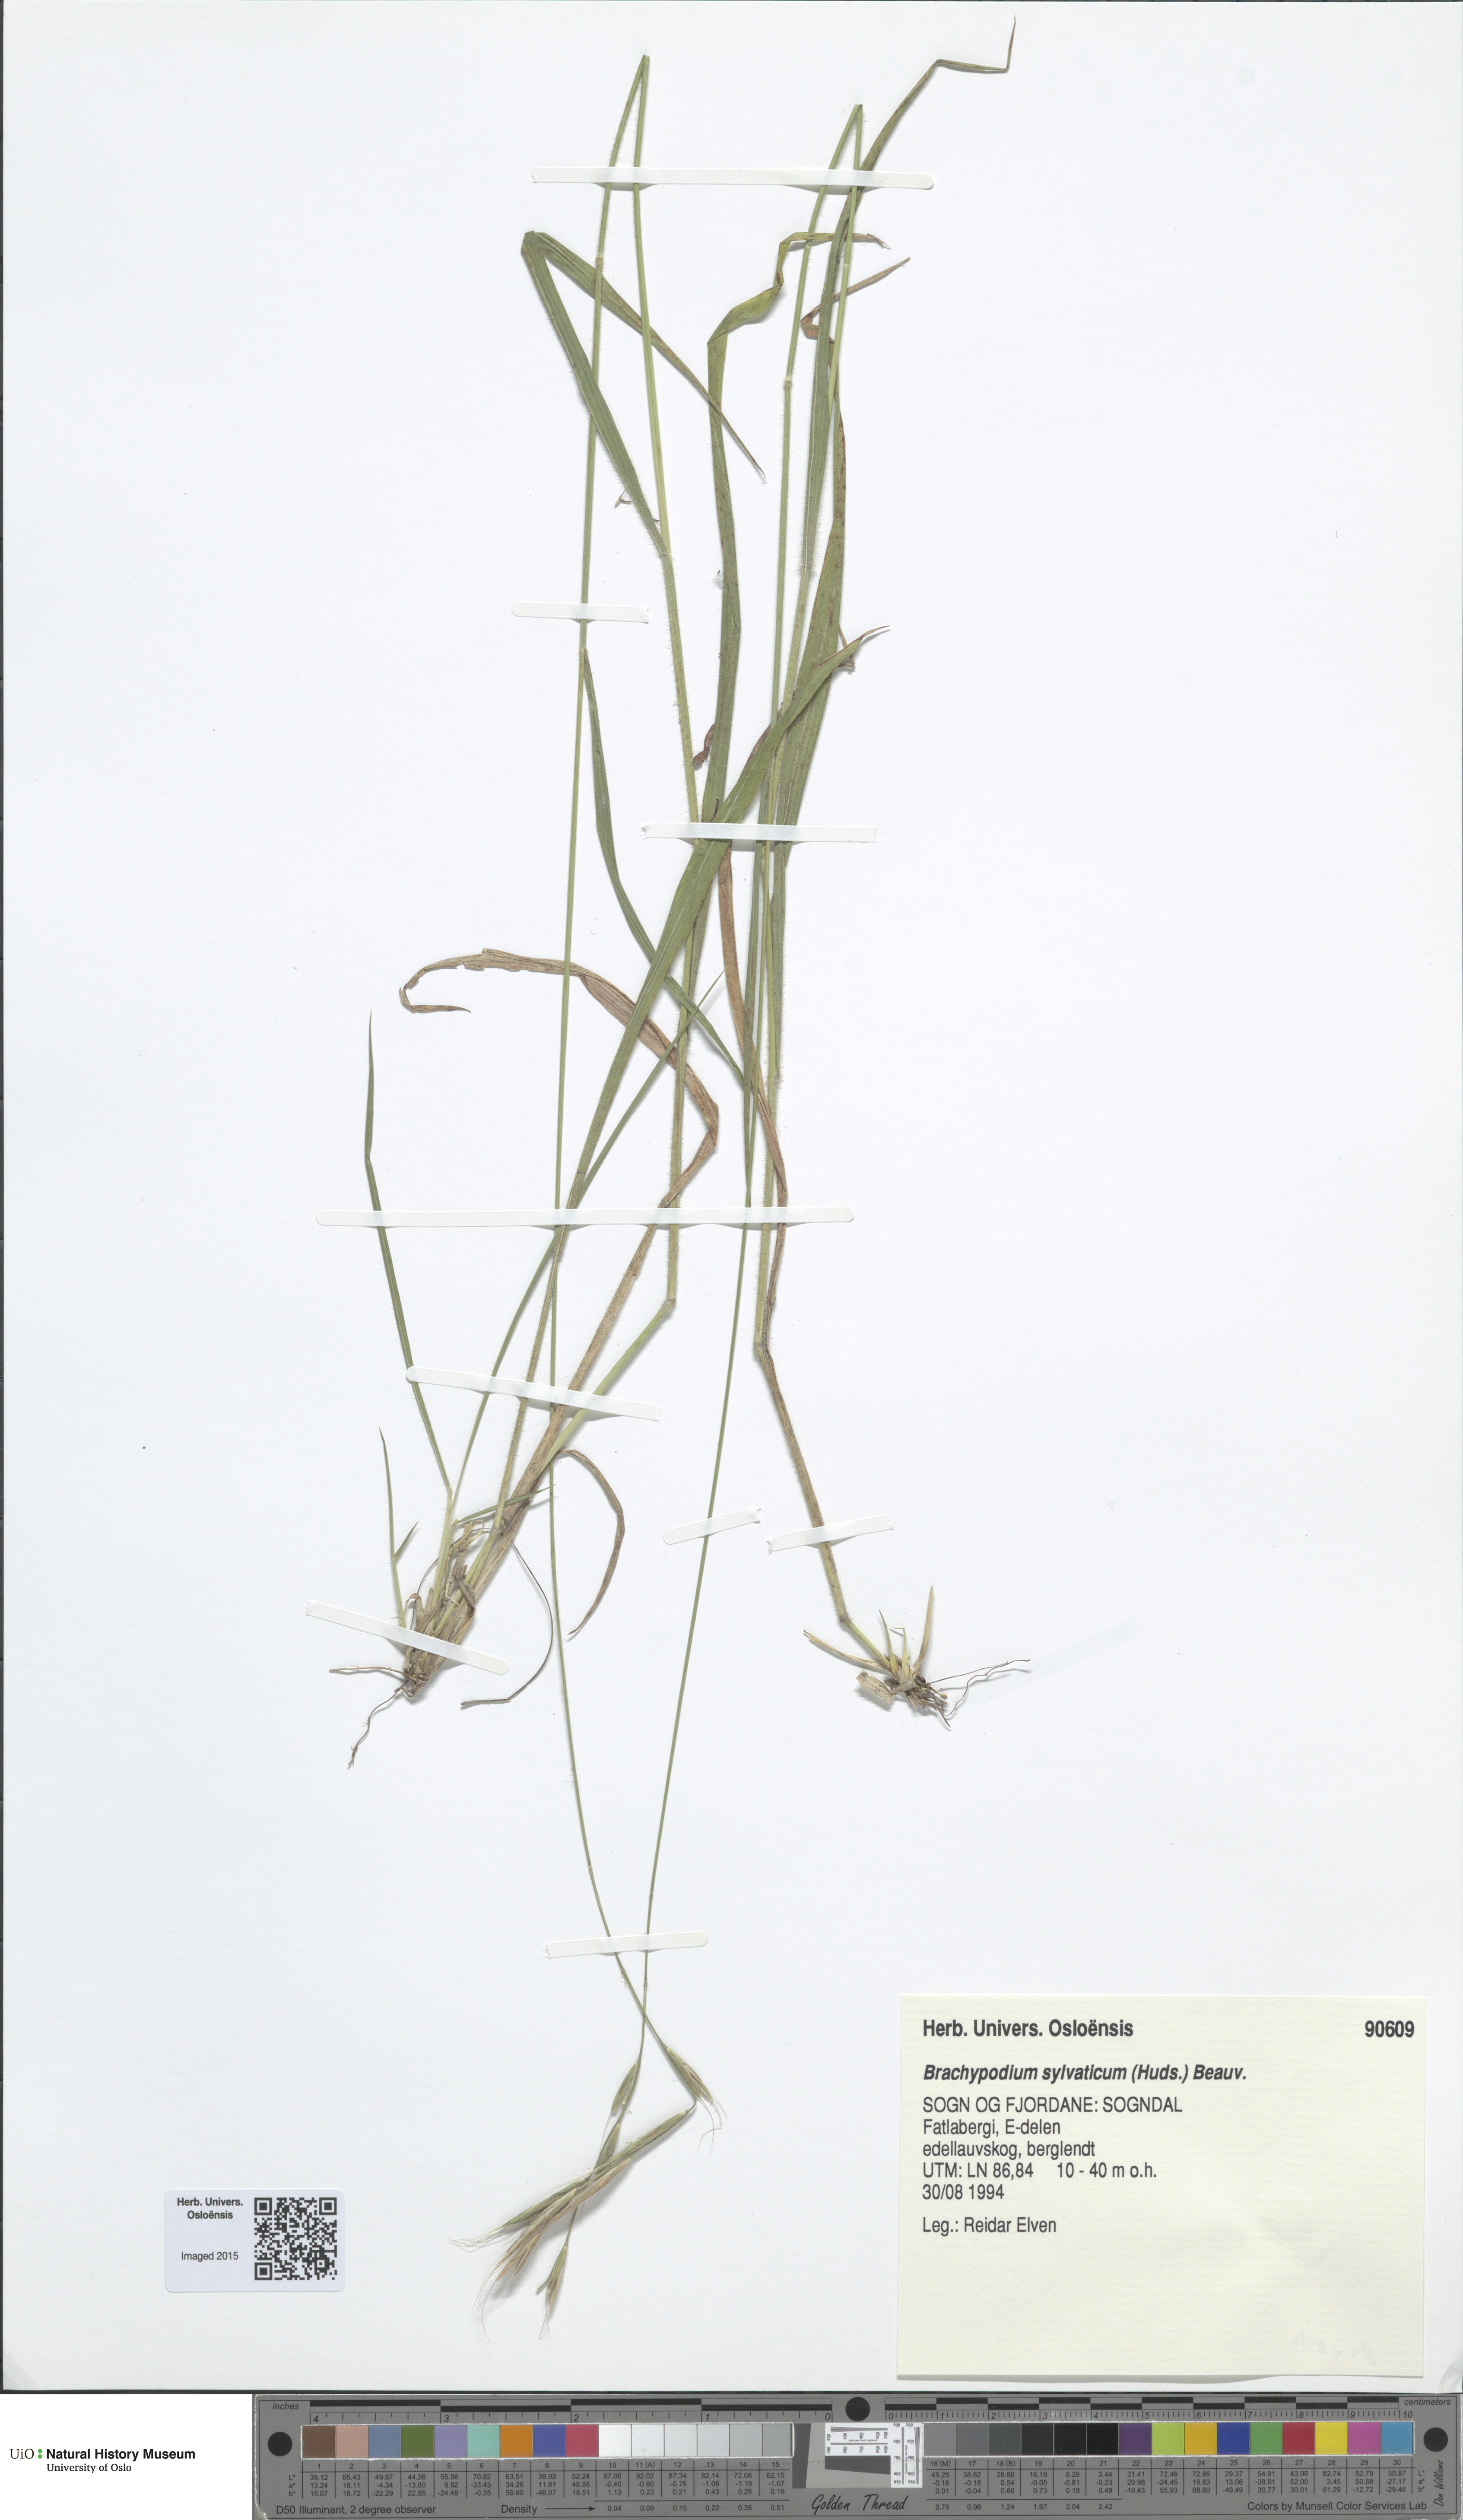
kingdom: Plantae
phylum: Tracheophyta
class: Liliopsida
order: Poales
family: Poaceae
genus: Brachypodium
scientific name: Brachypodium sylvaticum
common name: False-brome
